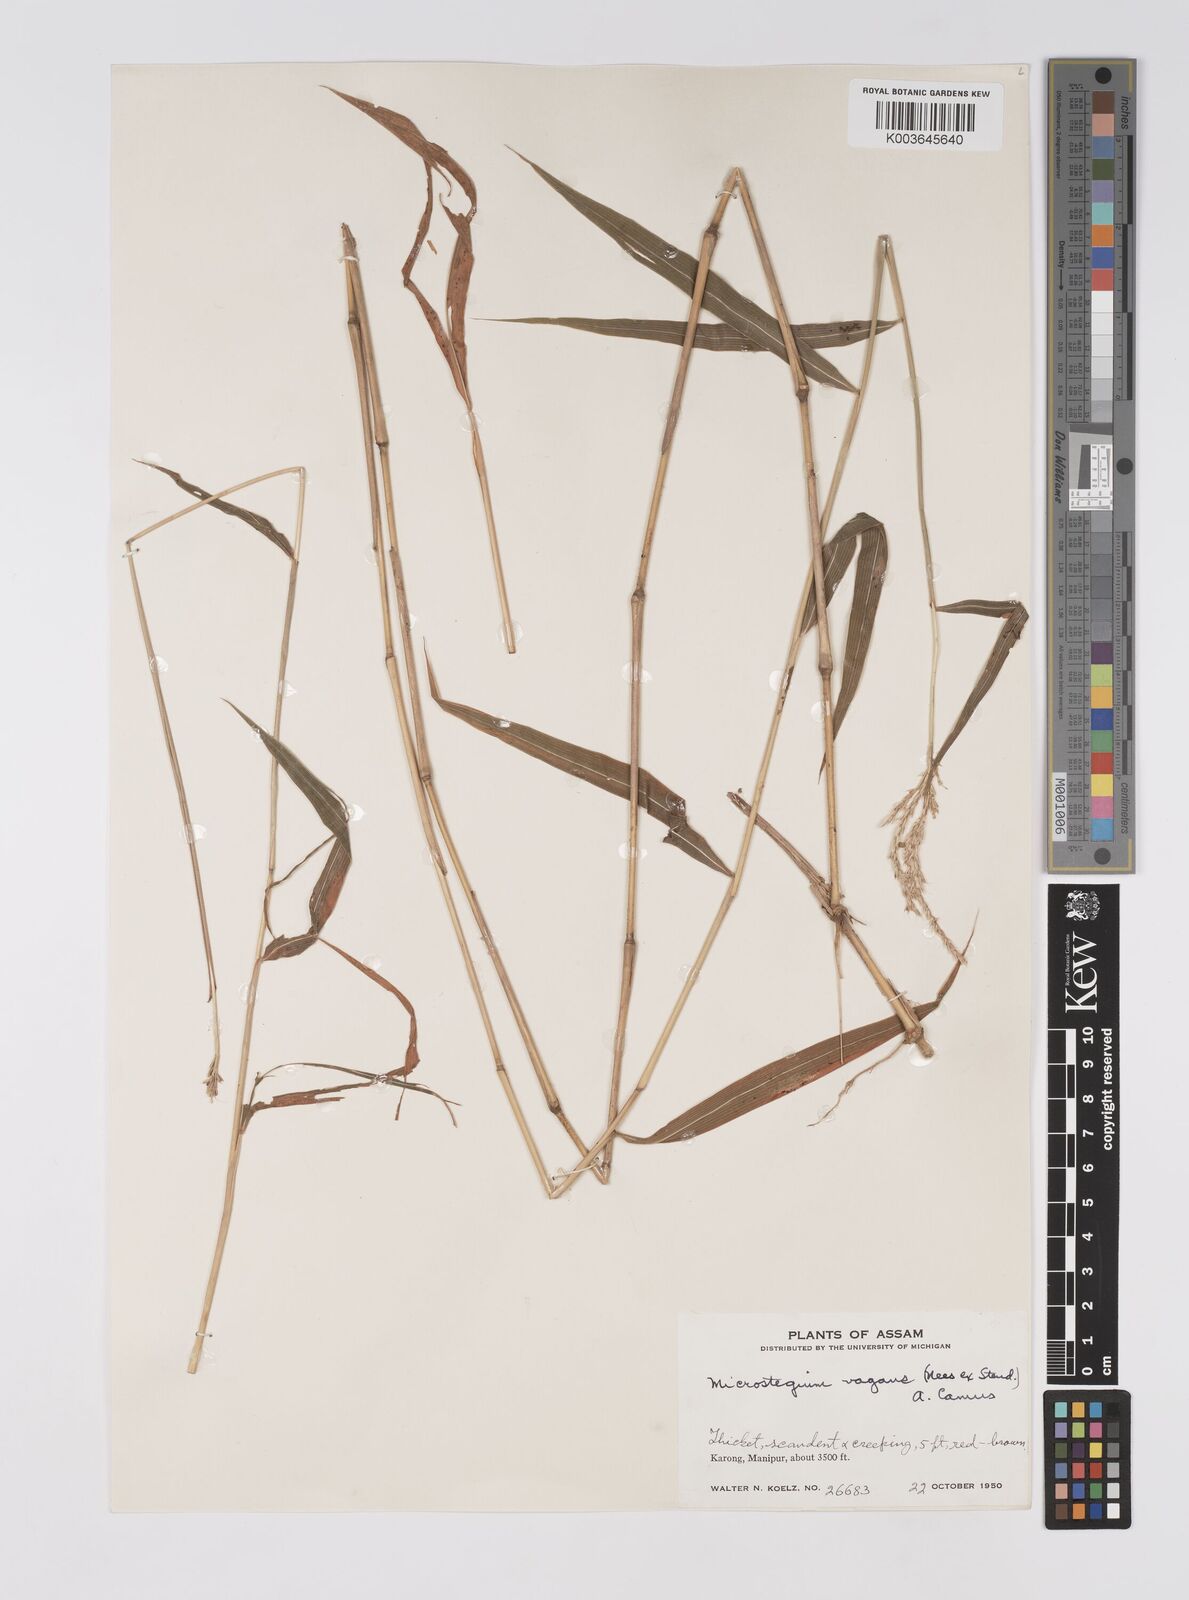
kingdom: Plantae
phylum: Tracheophyta
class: Liliopsida
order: Poales
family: Poaceae
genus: Microstegium
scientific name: Microstegium fasciculatum
